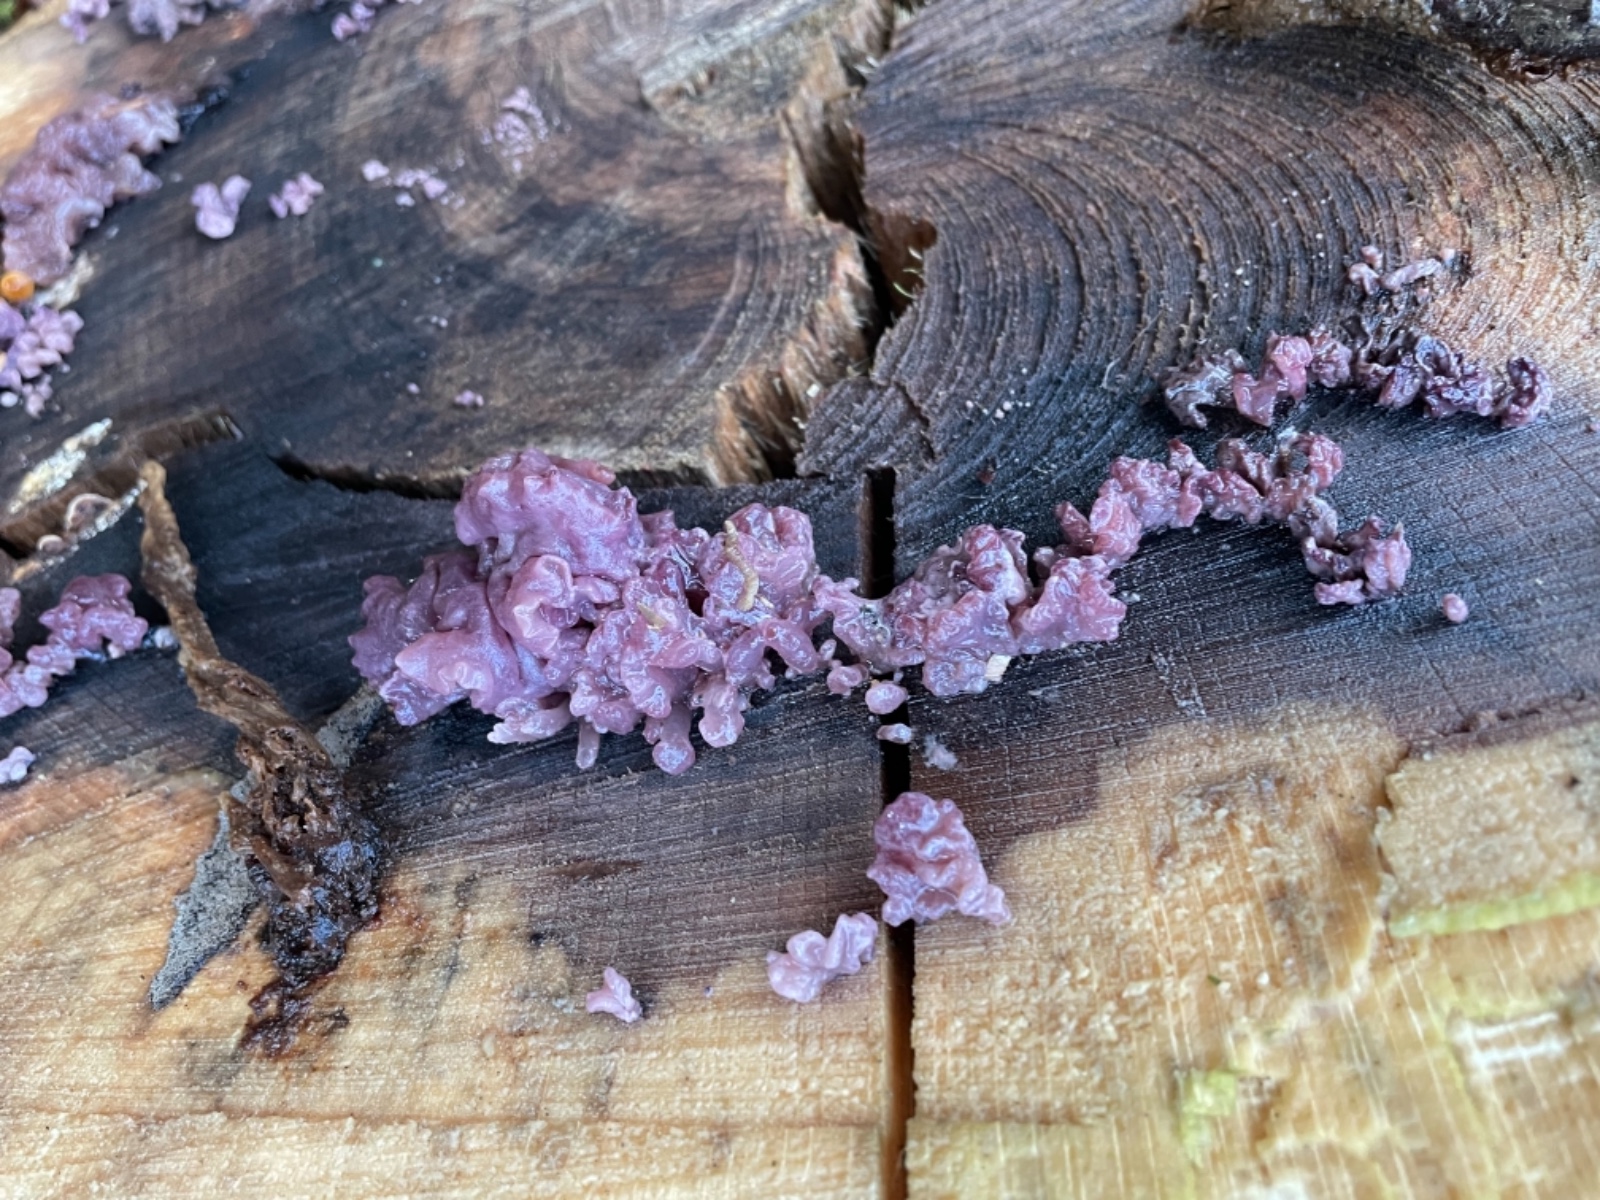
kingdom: Fungi
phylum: Ascomycota
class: Leotiomycetes
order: Helotiales
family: Gelatinodiscaceae
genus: Ascocoryne
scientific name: Ascocoryne sarcoides
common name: rødlilla sejskive
